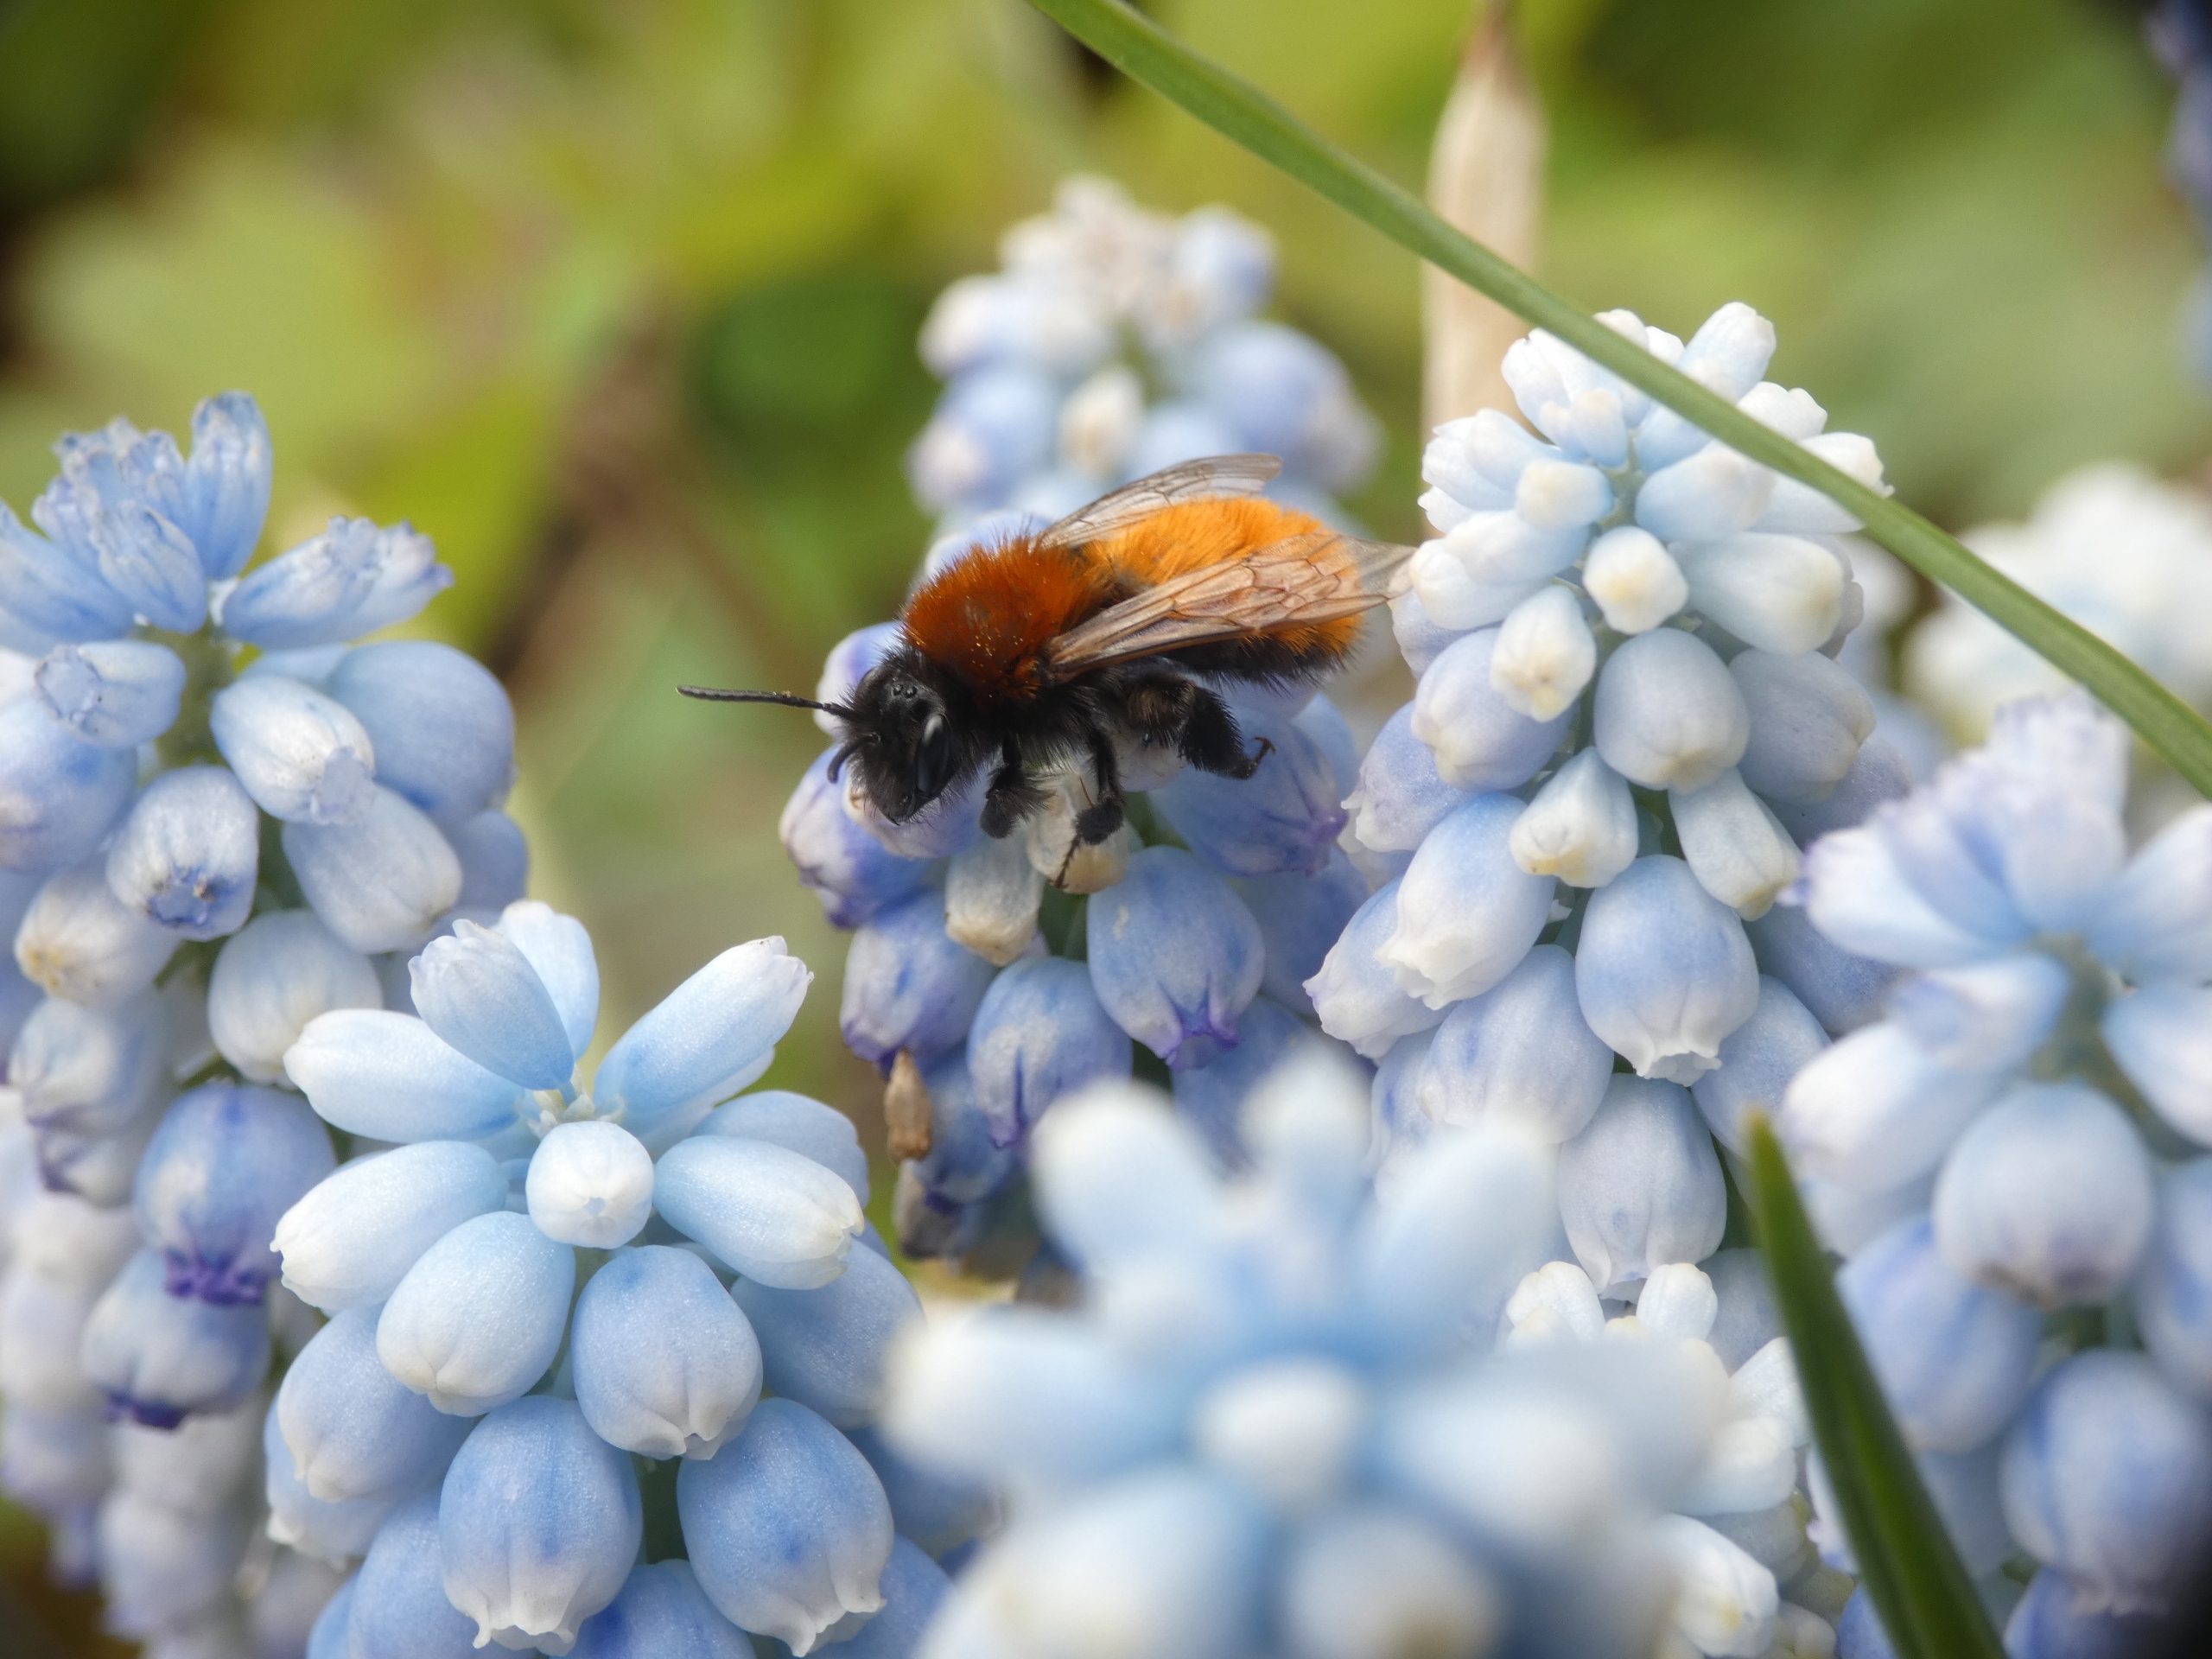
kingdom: Animalia
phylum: Arthropoda
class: Insecta
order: Hymenoptera
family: Andrenidae
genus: Andrena
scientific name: Andrena fulva
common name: Rødpelset jordbi
